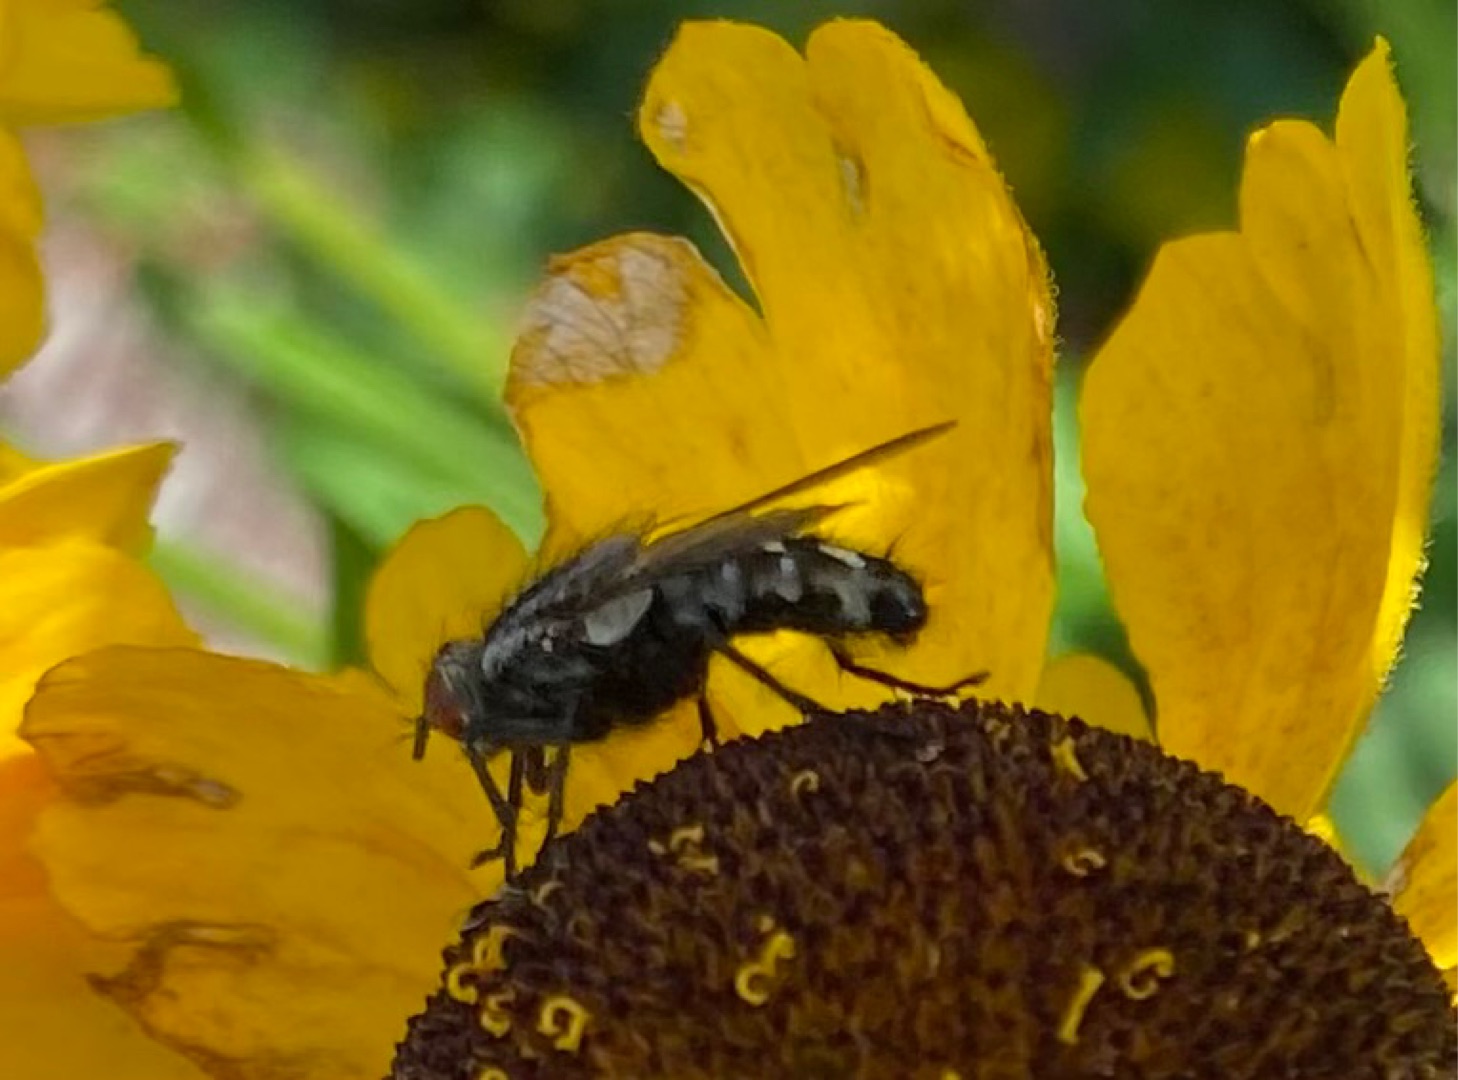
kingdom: Animalia
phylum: Arthropoda
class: Insecta
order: Diptera
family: Sarcophagidae
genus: Sarcophaga
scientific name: Sarcophaga
